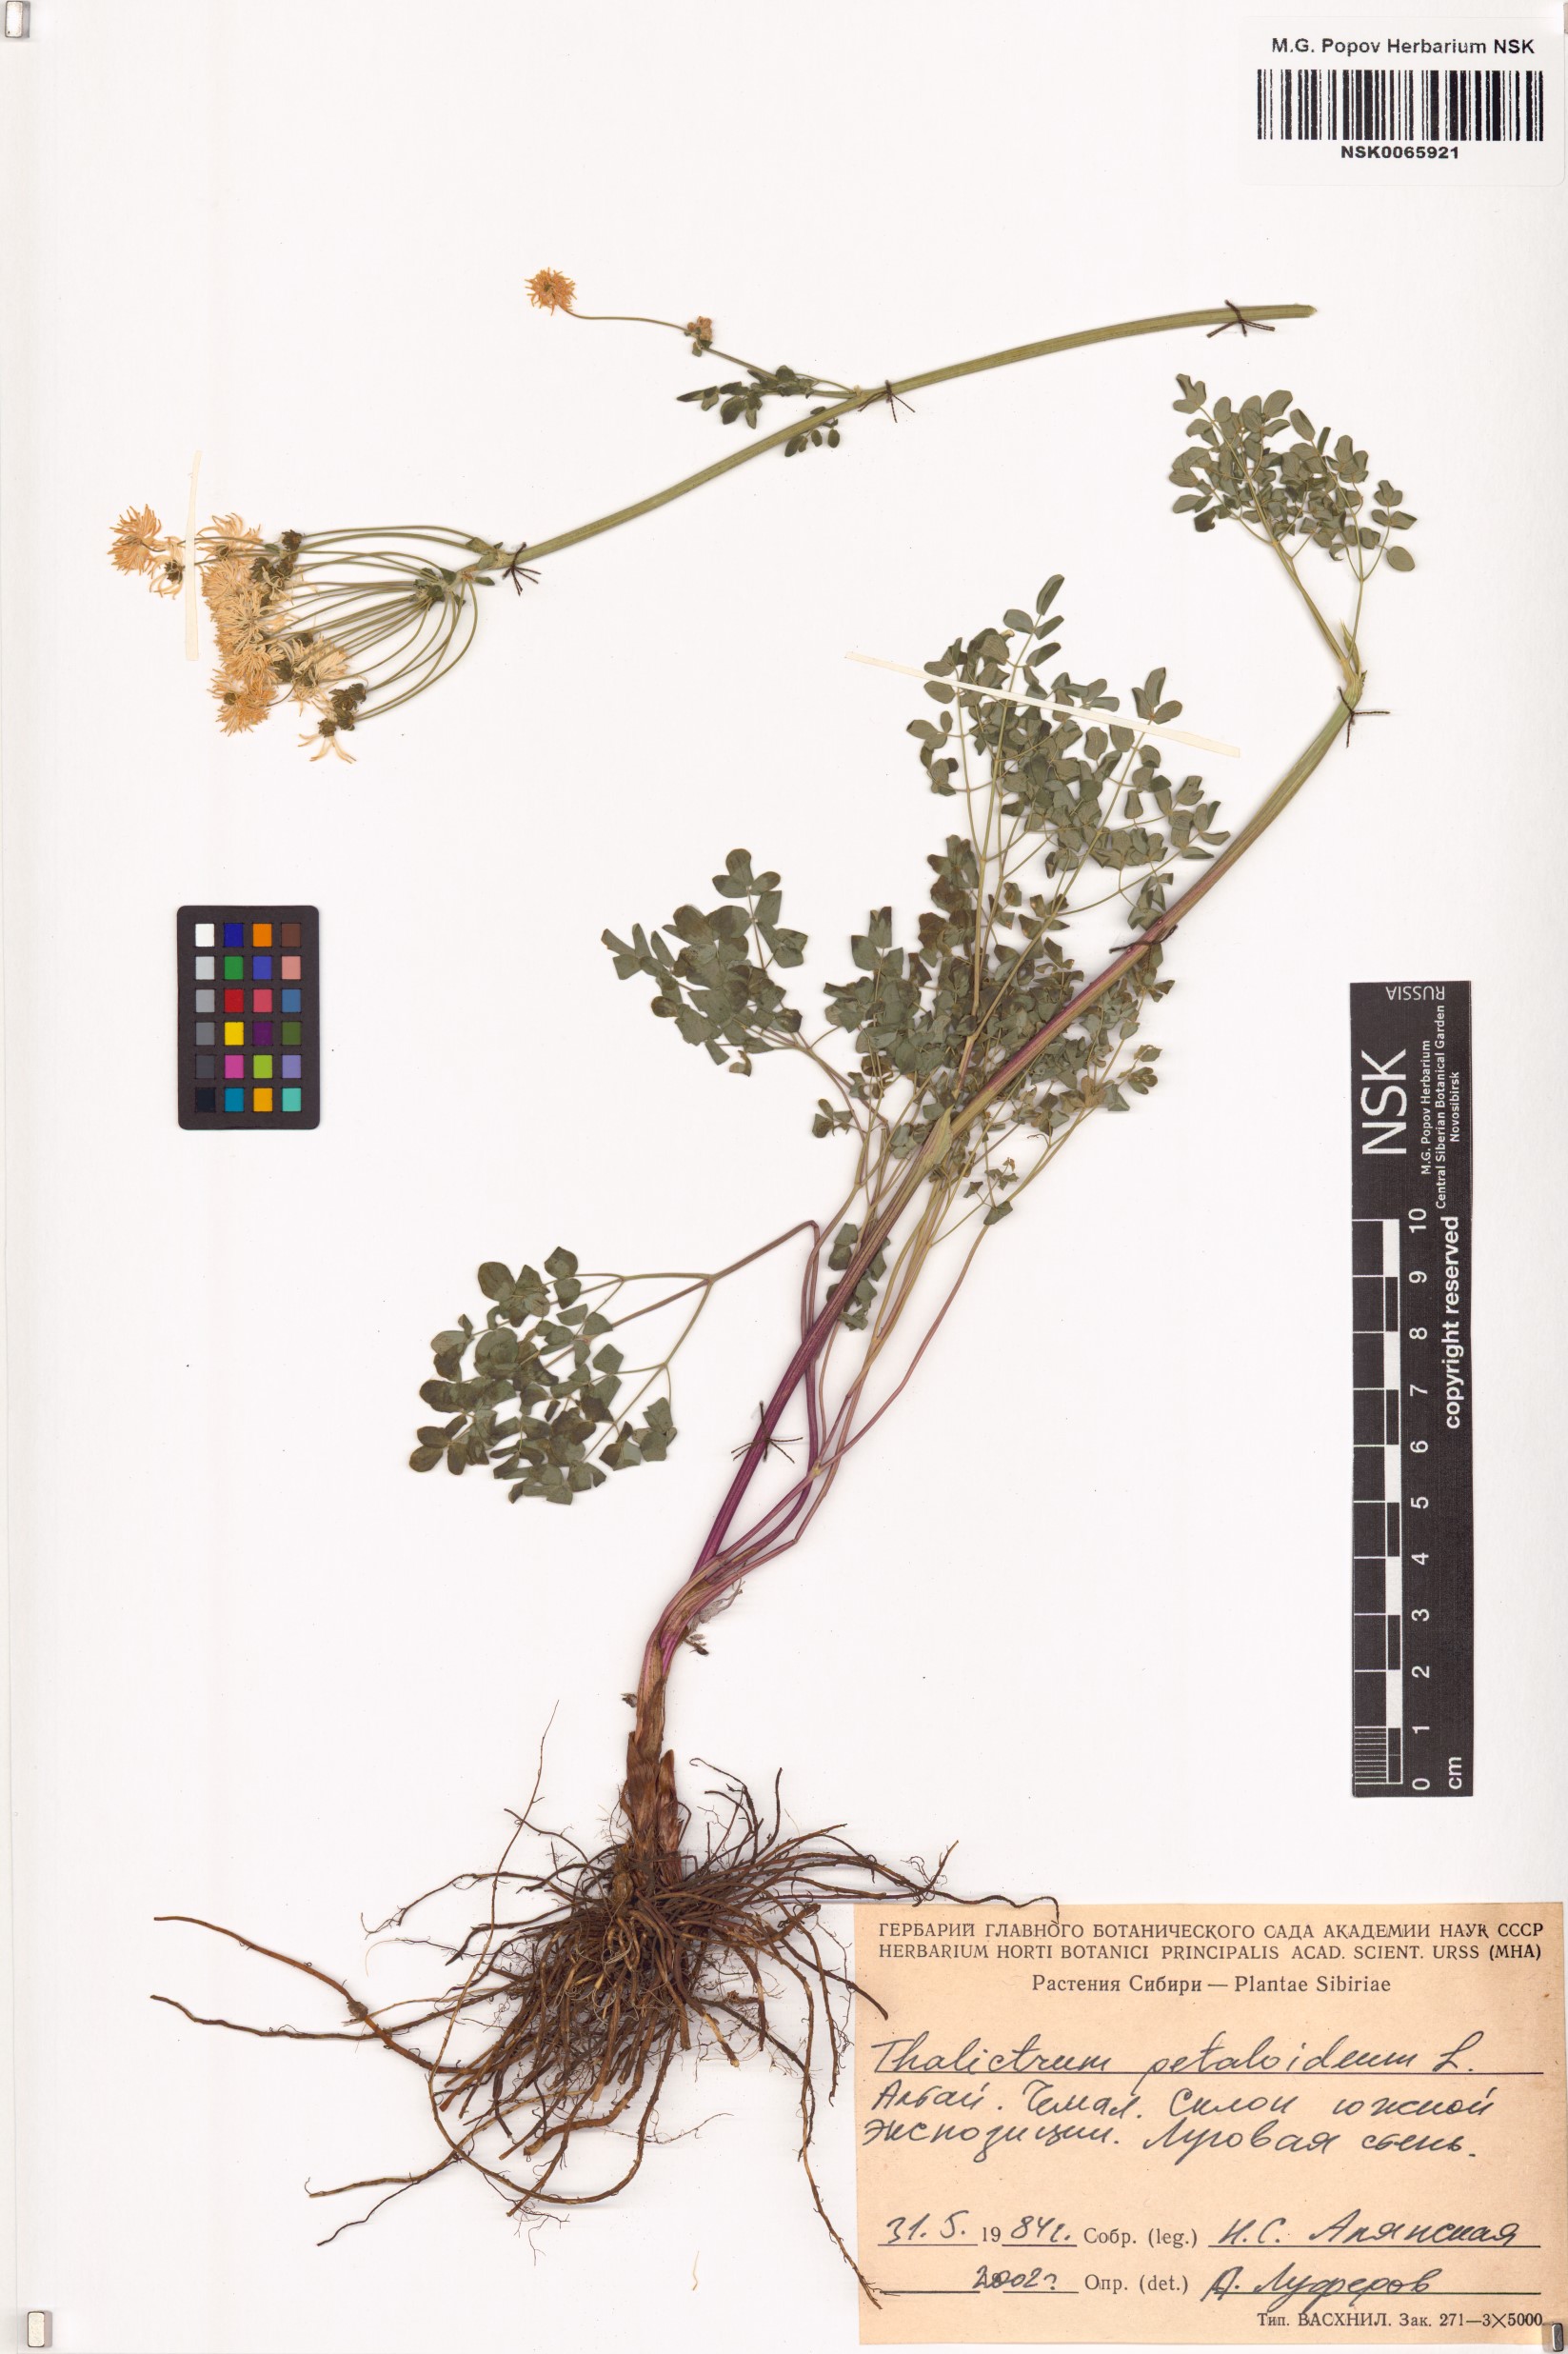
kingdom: Plantae
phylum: Tracheophyta
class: Magnoliopsida
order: Ranunculales
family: Ranunculaceae
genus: Thalictrum
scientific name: Thalictrum petaloideum
